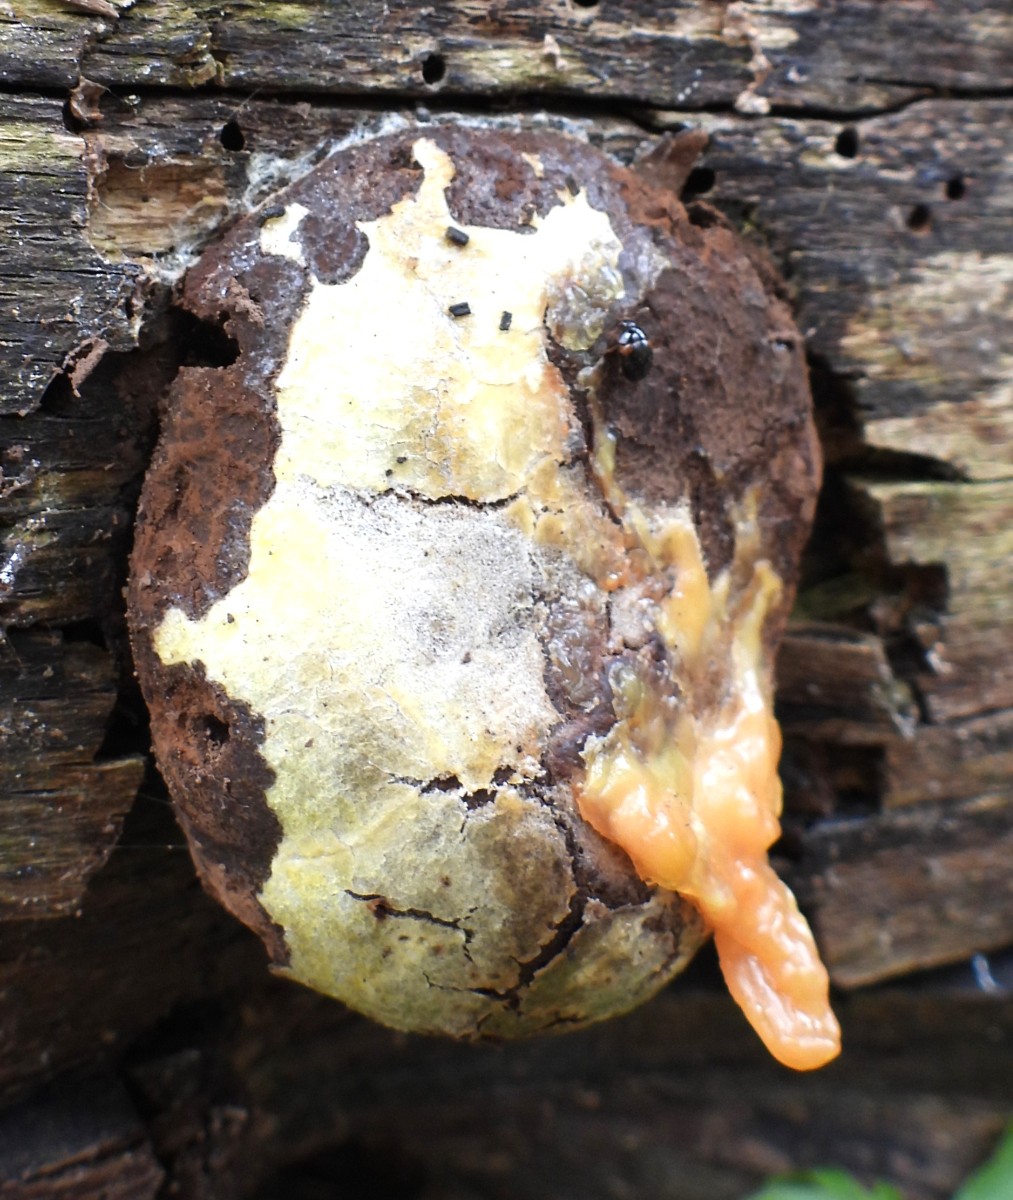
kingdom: Protozoa
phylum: Mycetozoa
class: Myxomycetes
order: Cribrariales
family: Tubiferaceae
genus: Reticularia
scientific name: Reticularia lycoperdon
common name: skinnende støvpude
